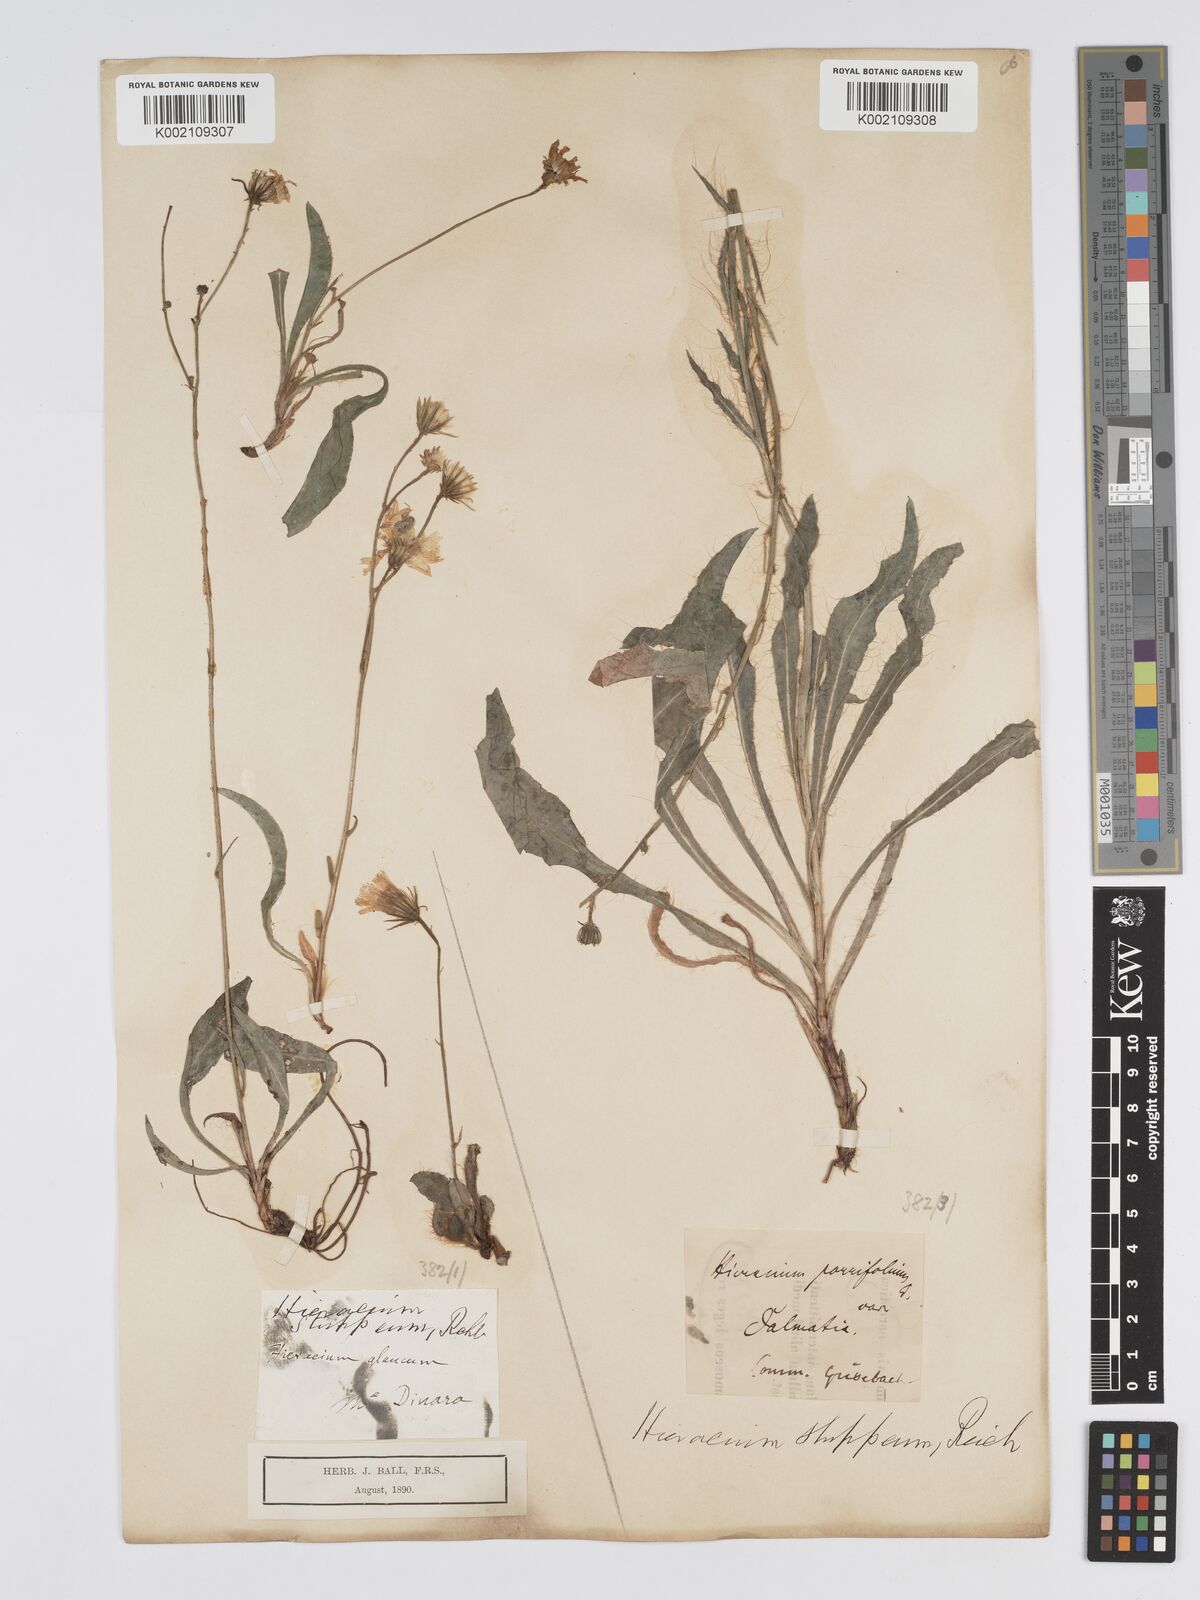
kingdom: Plantae
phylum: Tracheophyta
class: Magnoliopsida
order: Asterales
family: Asteraceae
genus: Hieracium
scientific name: Hieracium heterogynum
